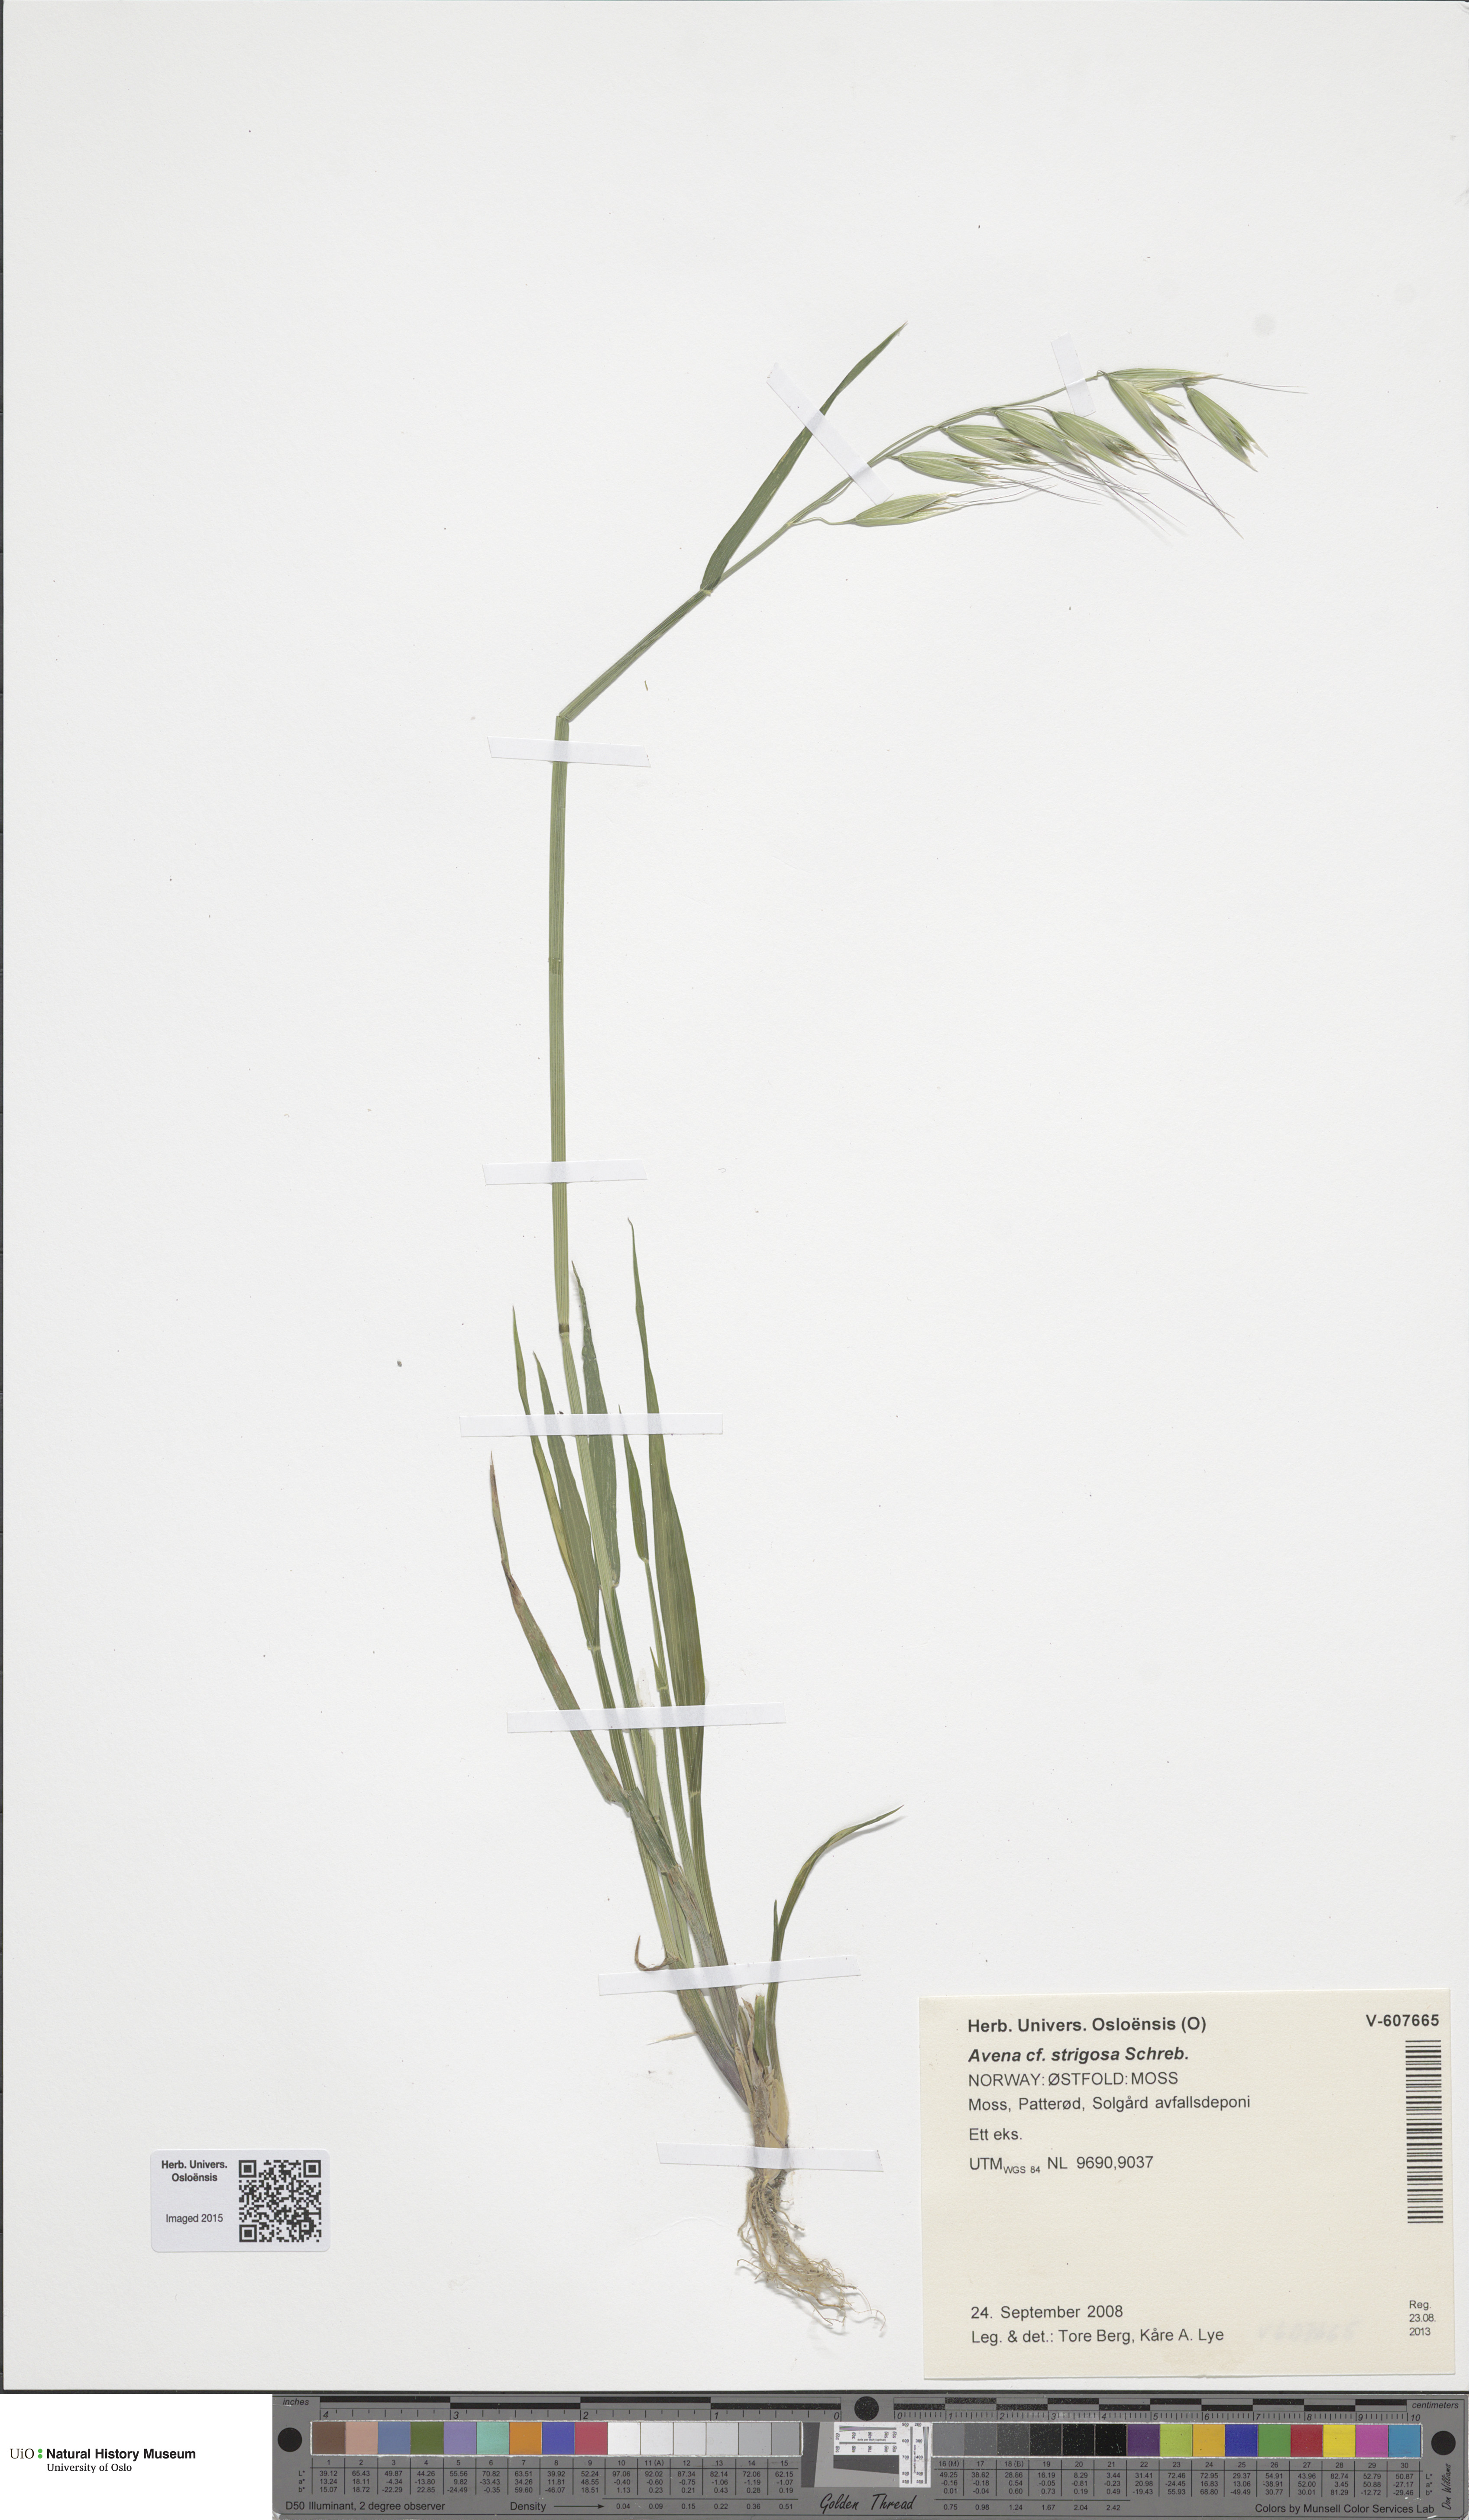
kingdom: Plantae
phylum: Tracheophyta
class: Liliopsida
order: Poales
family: Poaceae
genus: Avena
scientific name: Avena strigosa
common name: Bristle oat
